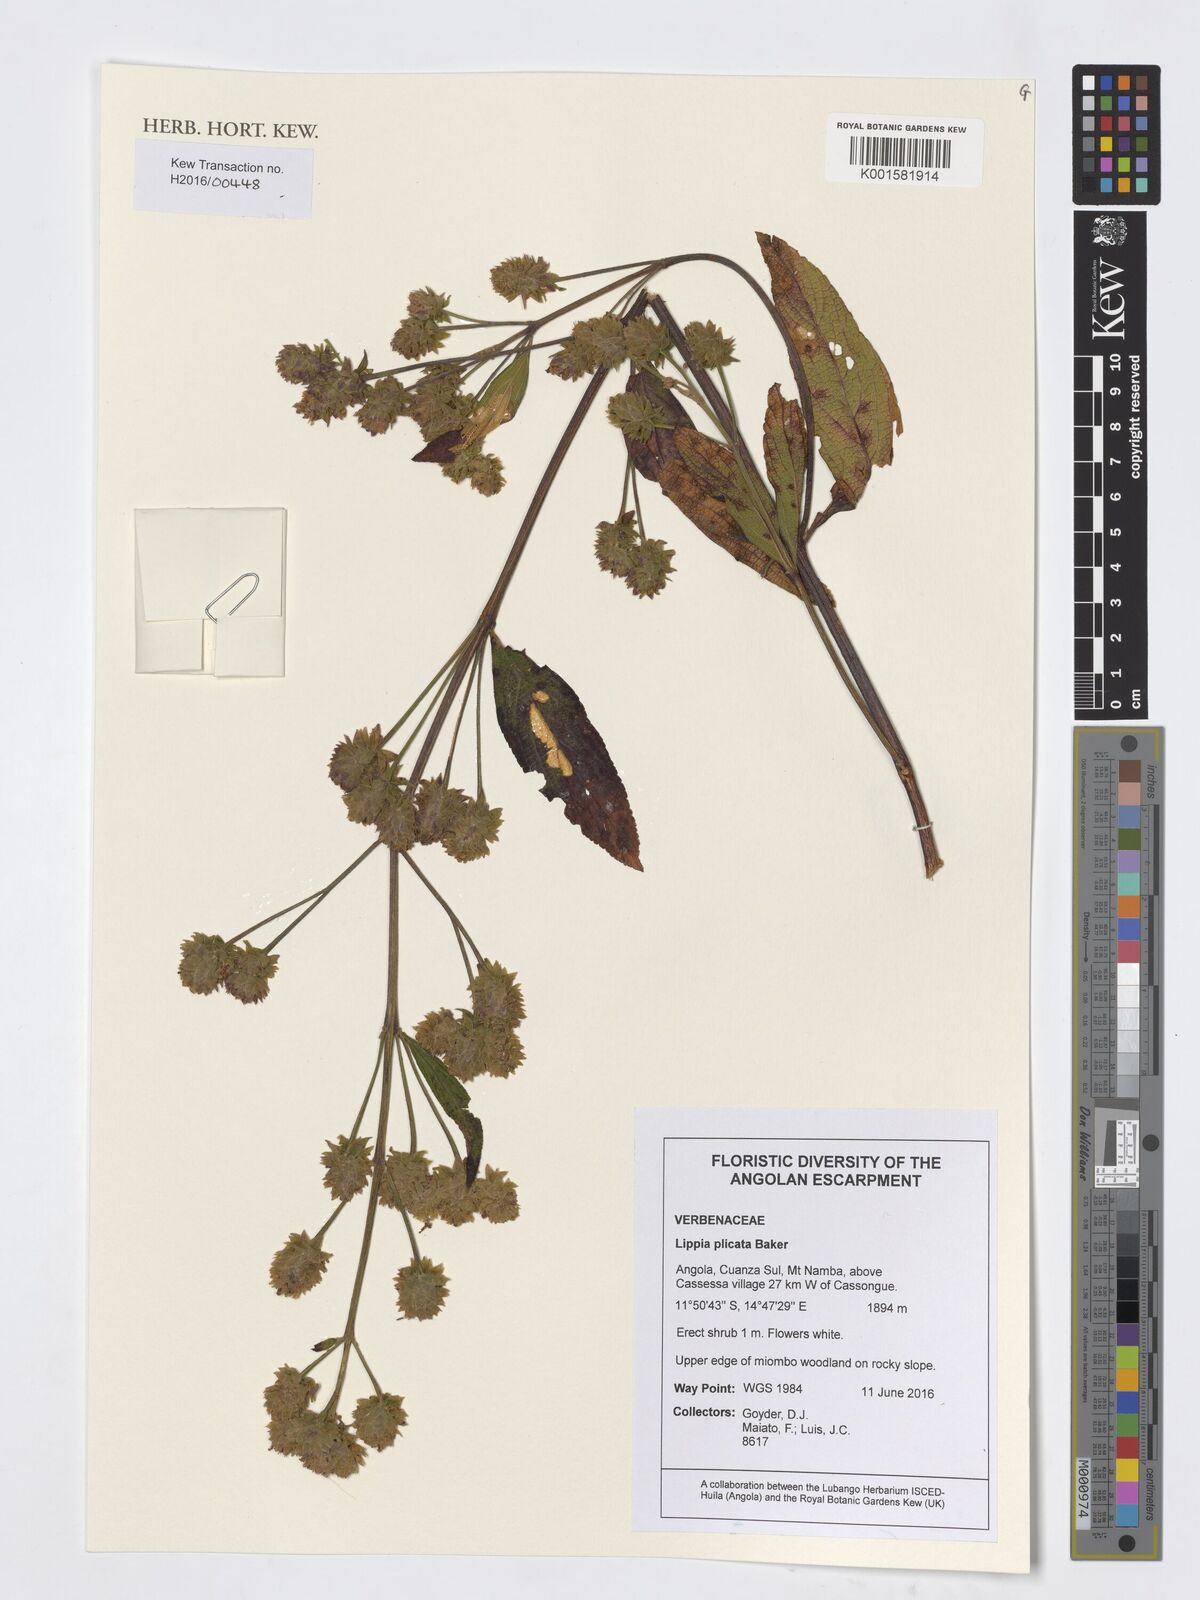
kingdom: Plantae
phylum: Tracheophyta
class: Magnoliopsida
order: Lamiales
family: Verbenaceae
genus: Lippia
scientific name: Lippia plicata
